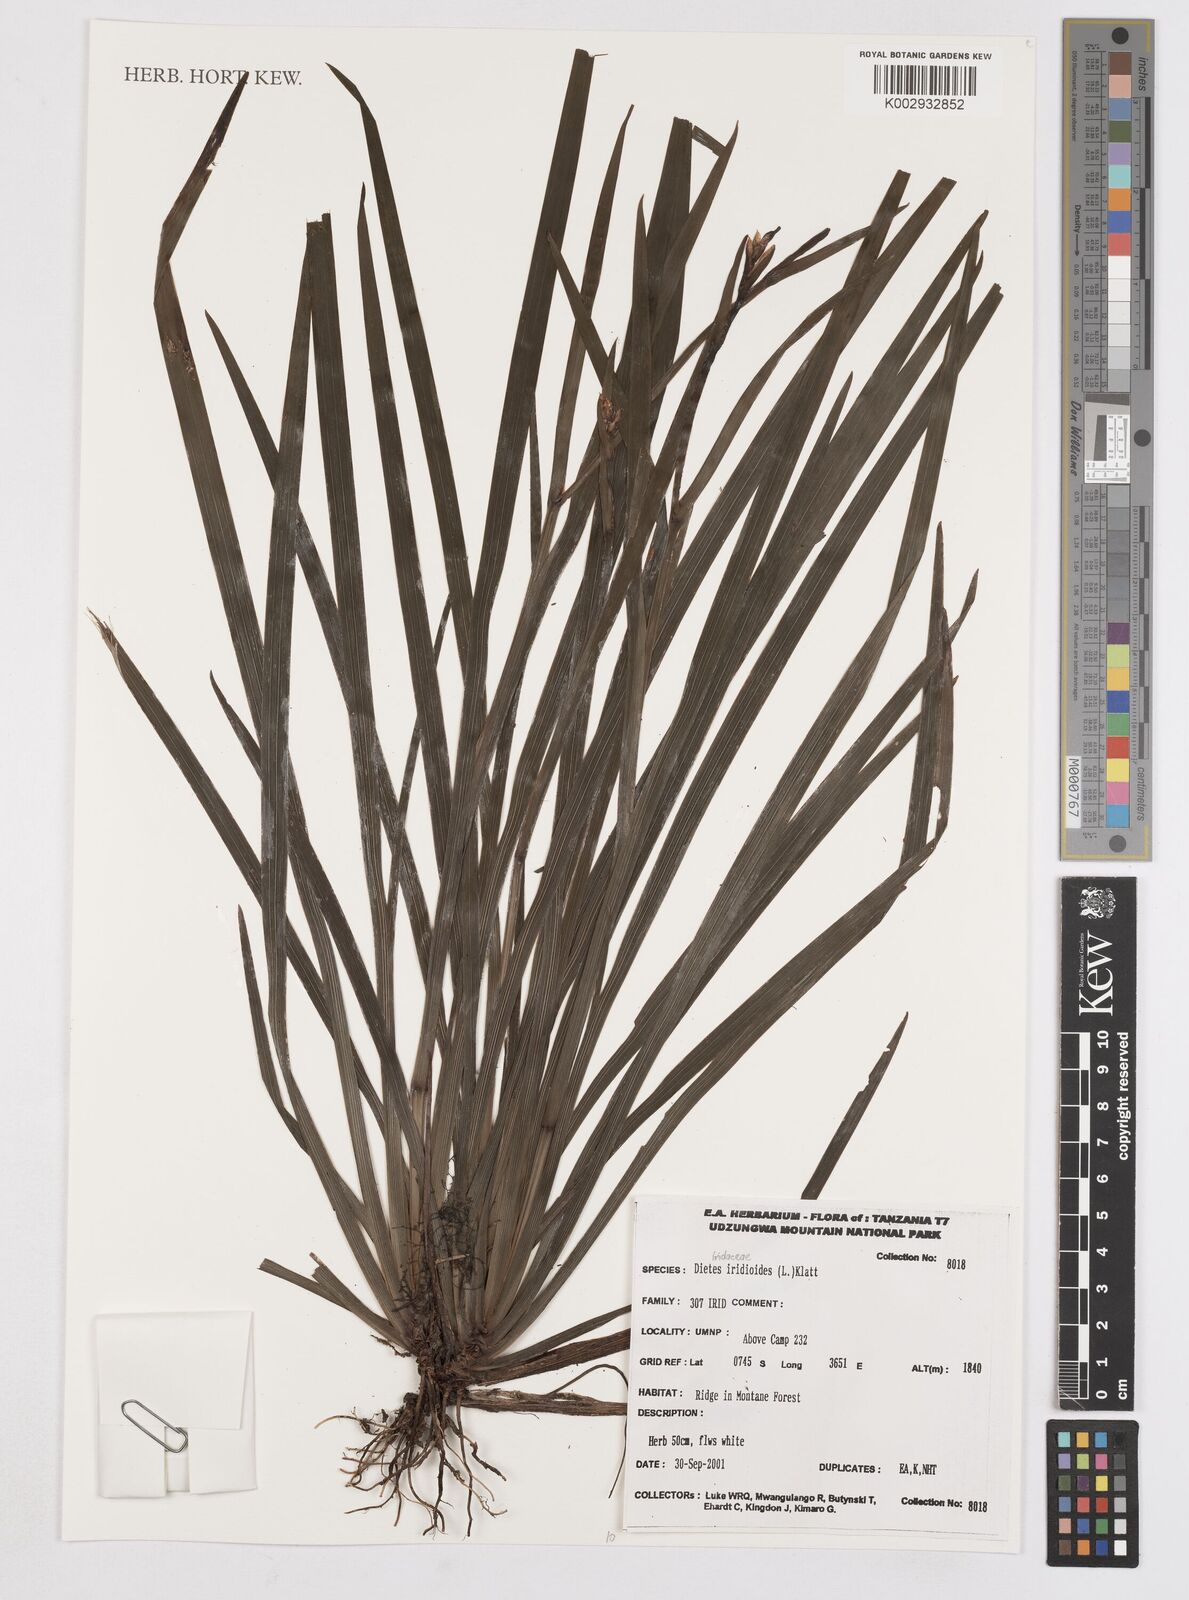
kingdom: Plantae
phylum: Tracheophyta
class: Liliopsida
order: Asparagales
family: Iridaceae
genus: Dietes
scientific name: Dietes iridioides
